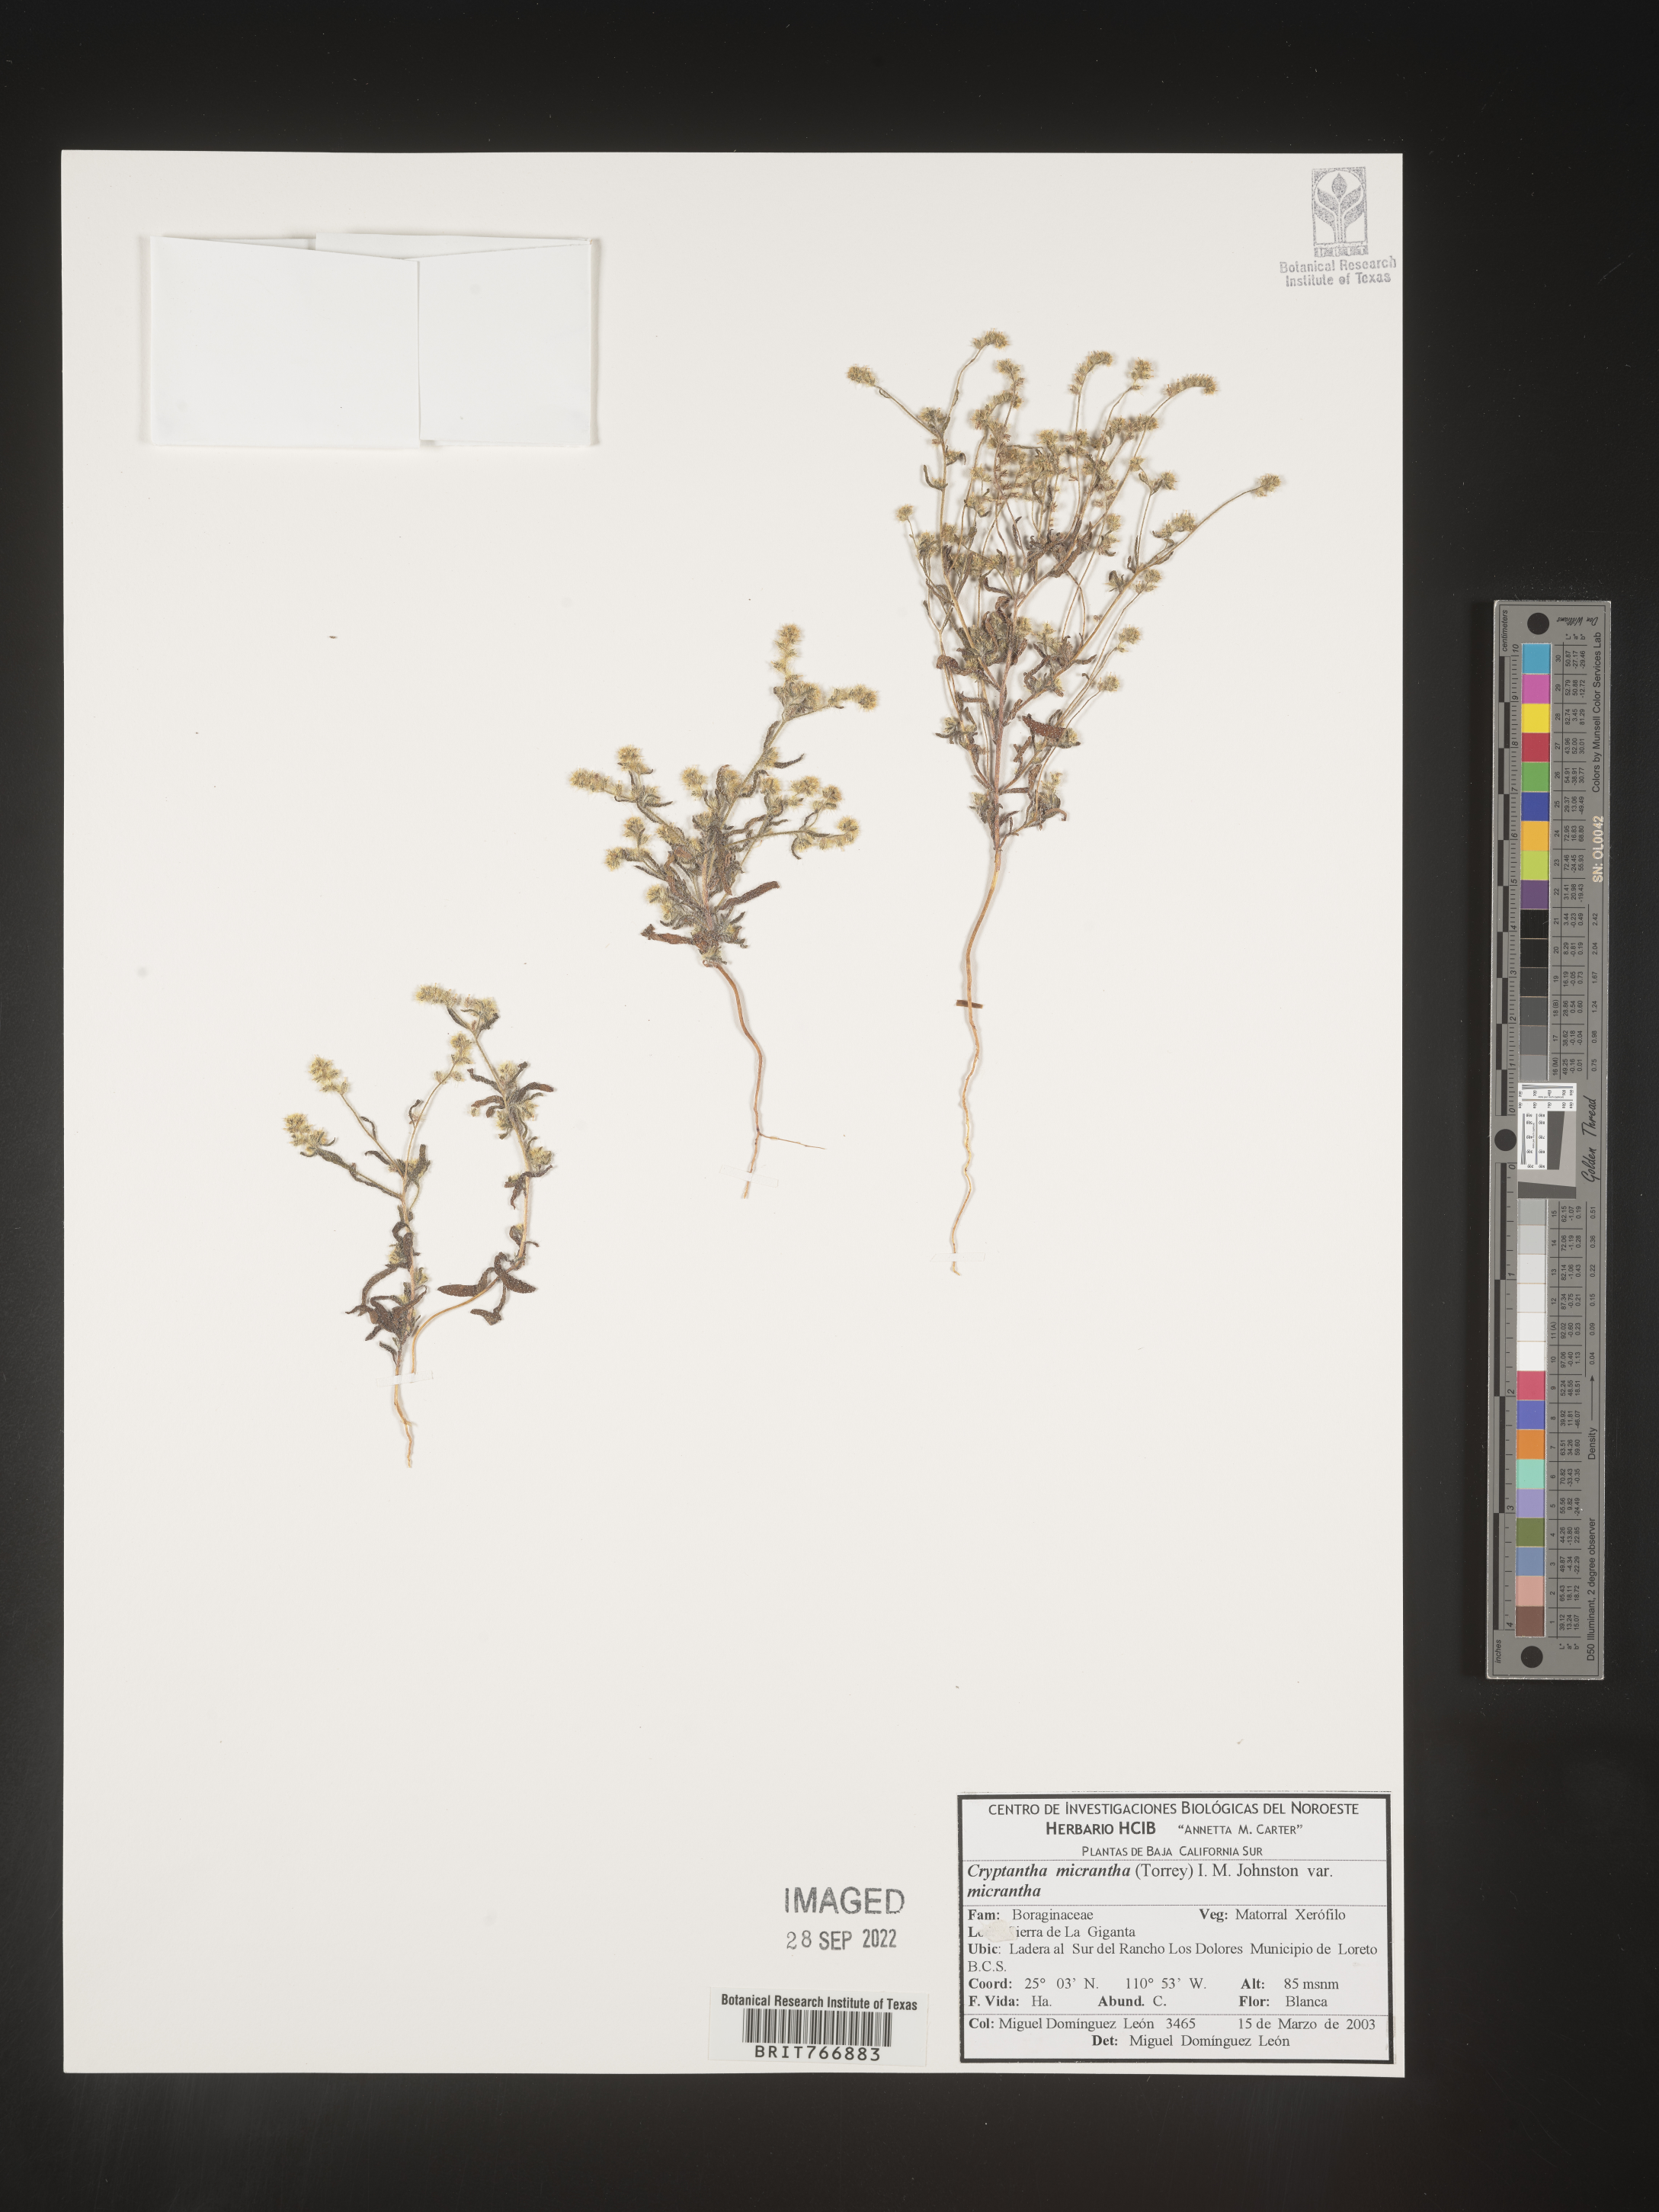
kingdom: Plantae
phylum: Tracheophyta
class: Magnoliopsida
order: Boraginales
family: Boraginaceae
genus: Cryptantha
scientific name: Cryptantha
